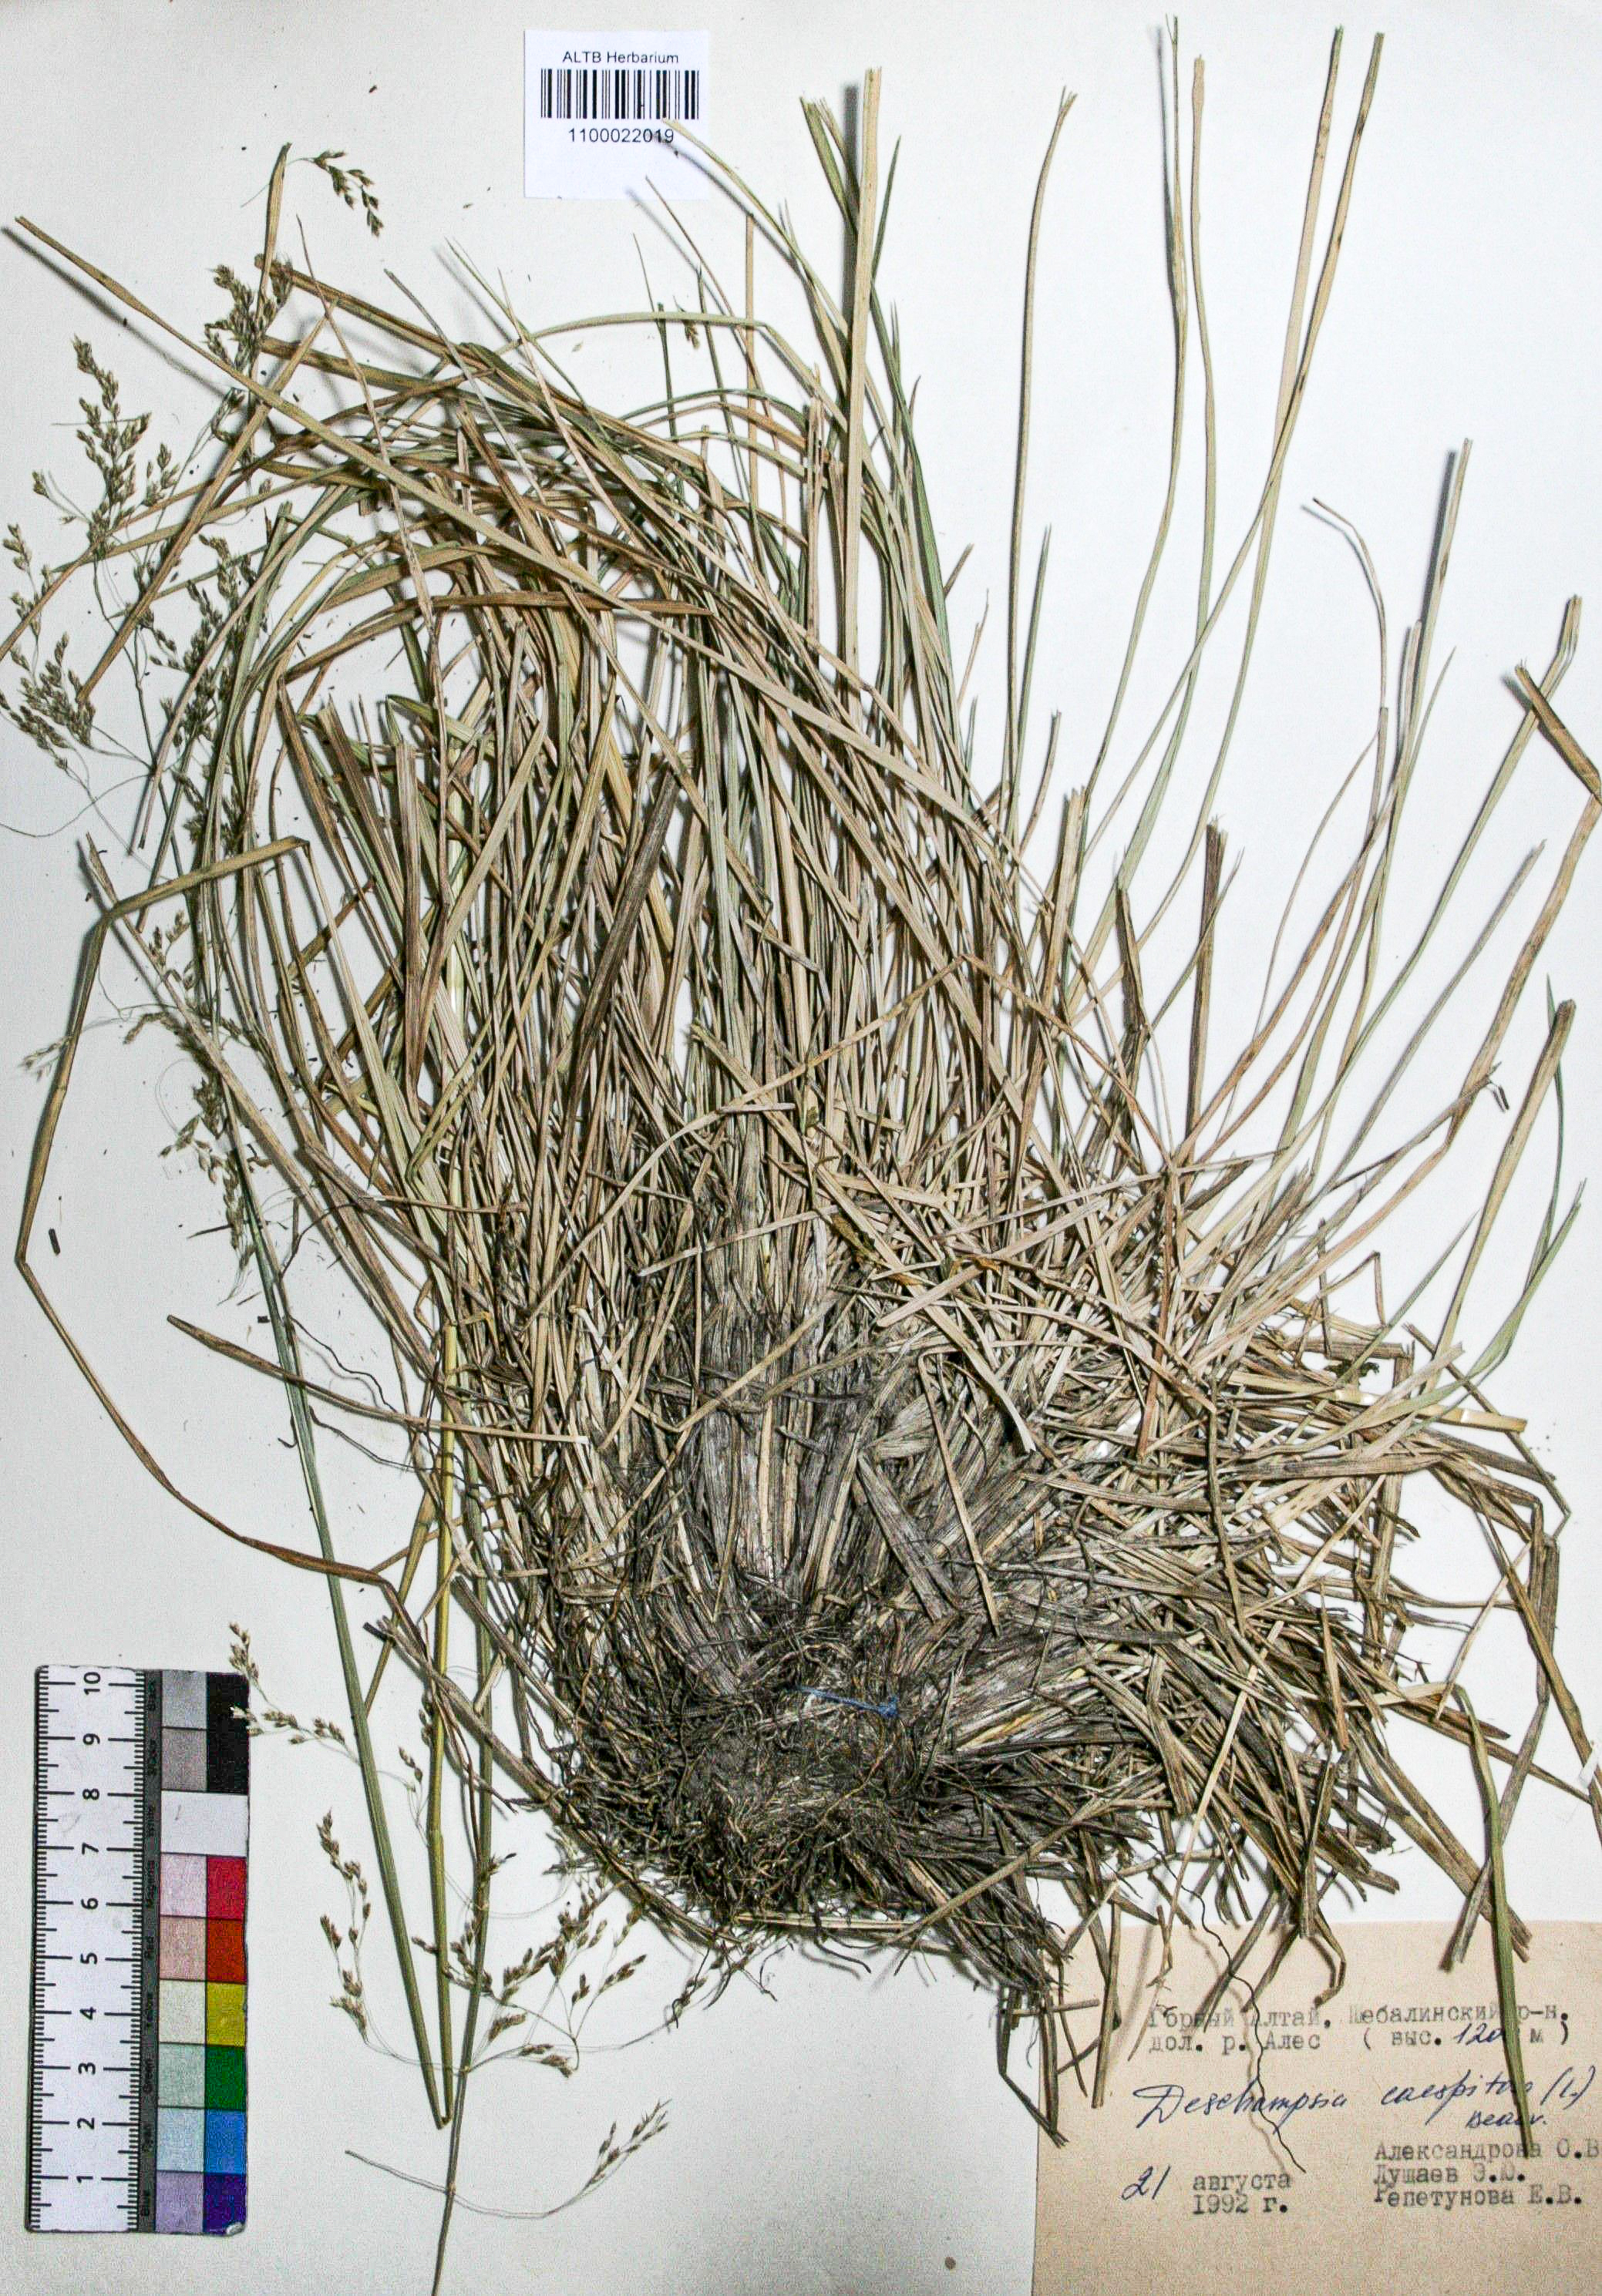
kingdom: Plantae
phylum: Tracheophyta
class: Liliopsida
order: Poales
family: Poaceae
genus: Deschampsia
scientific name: Deschampsia cespitosa
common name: Tufted hair-grass
